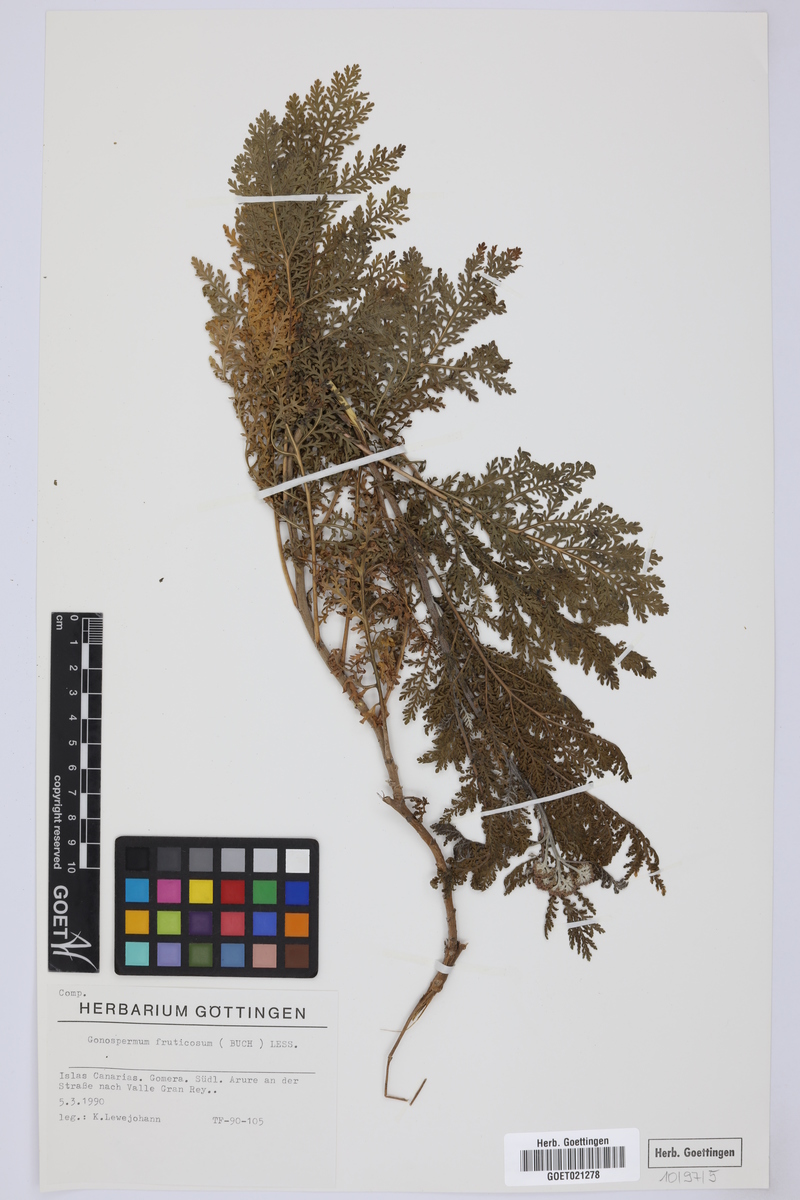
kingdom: Plantae
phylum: Tracheophyta
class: Magnoliopsida
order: Asterales
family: Asteraceae
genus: Gonospermum
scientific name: Gonospermum fruticosum
